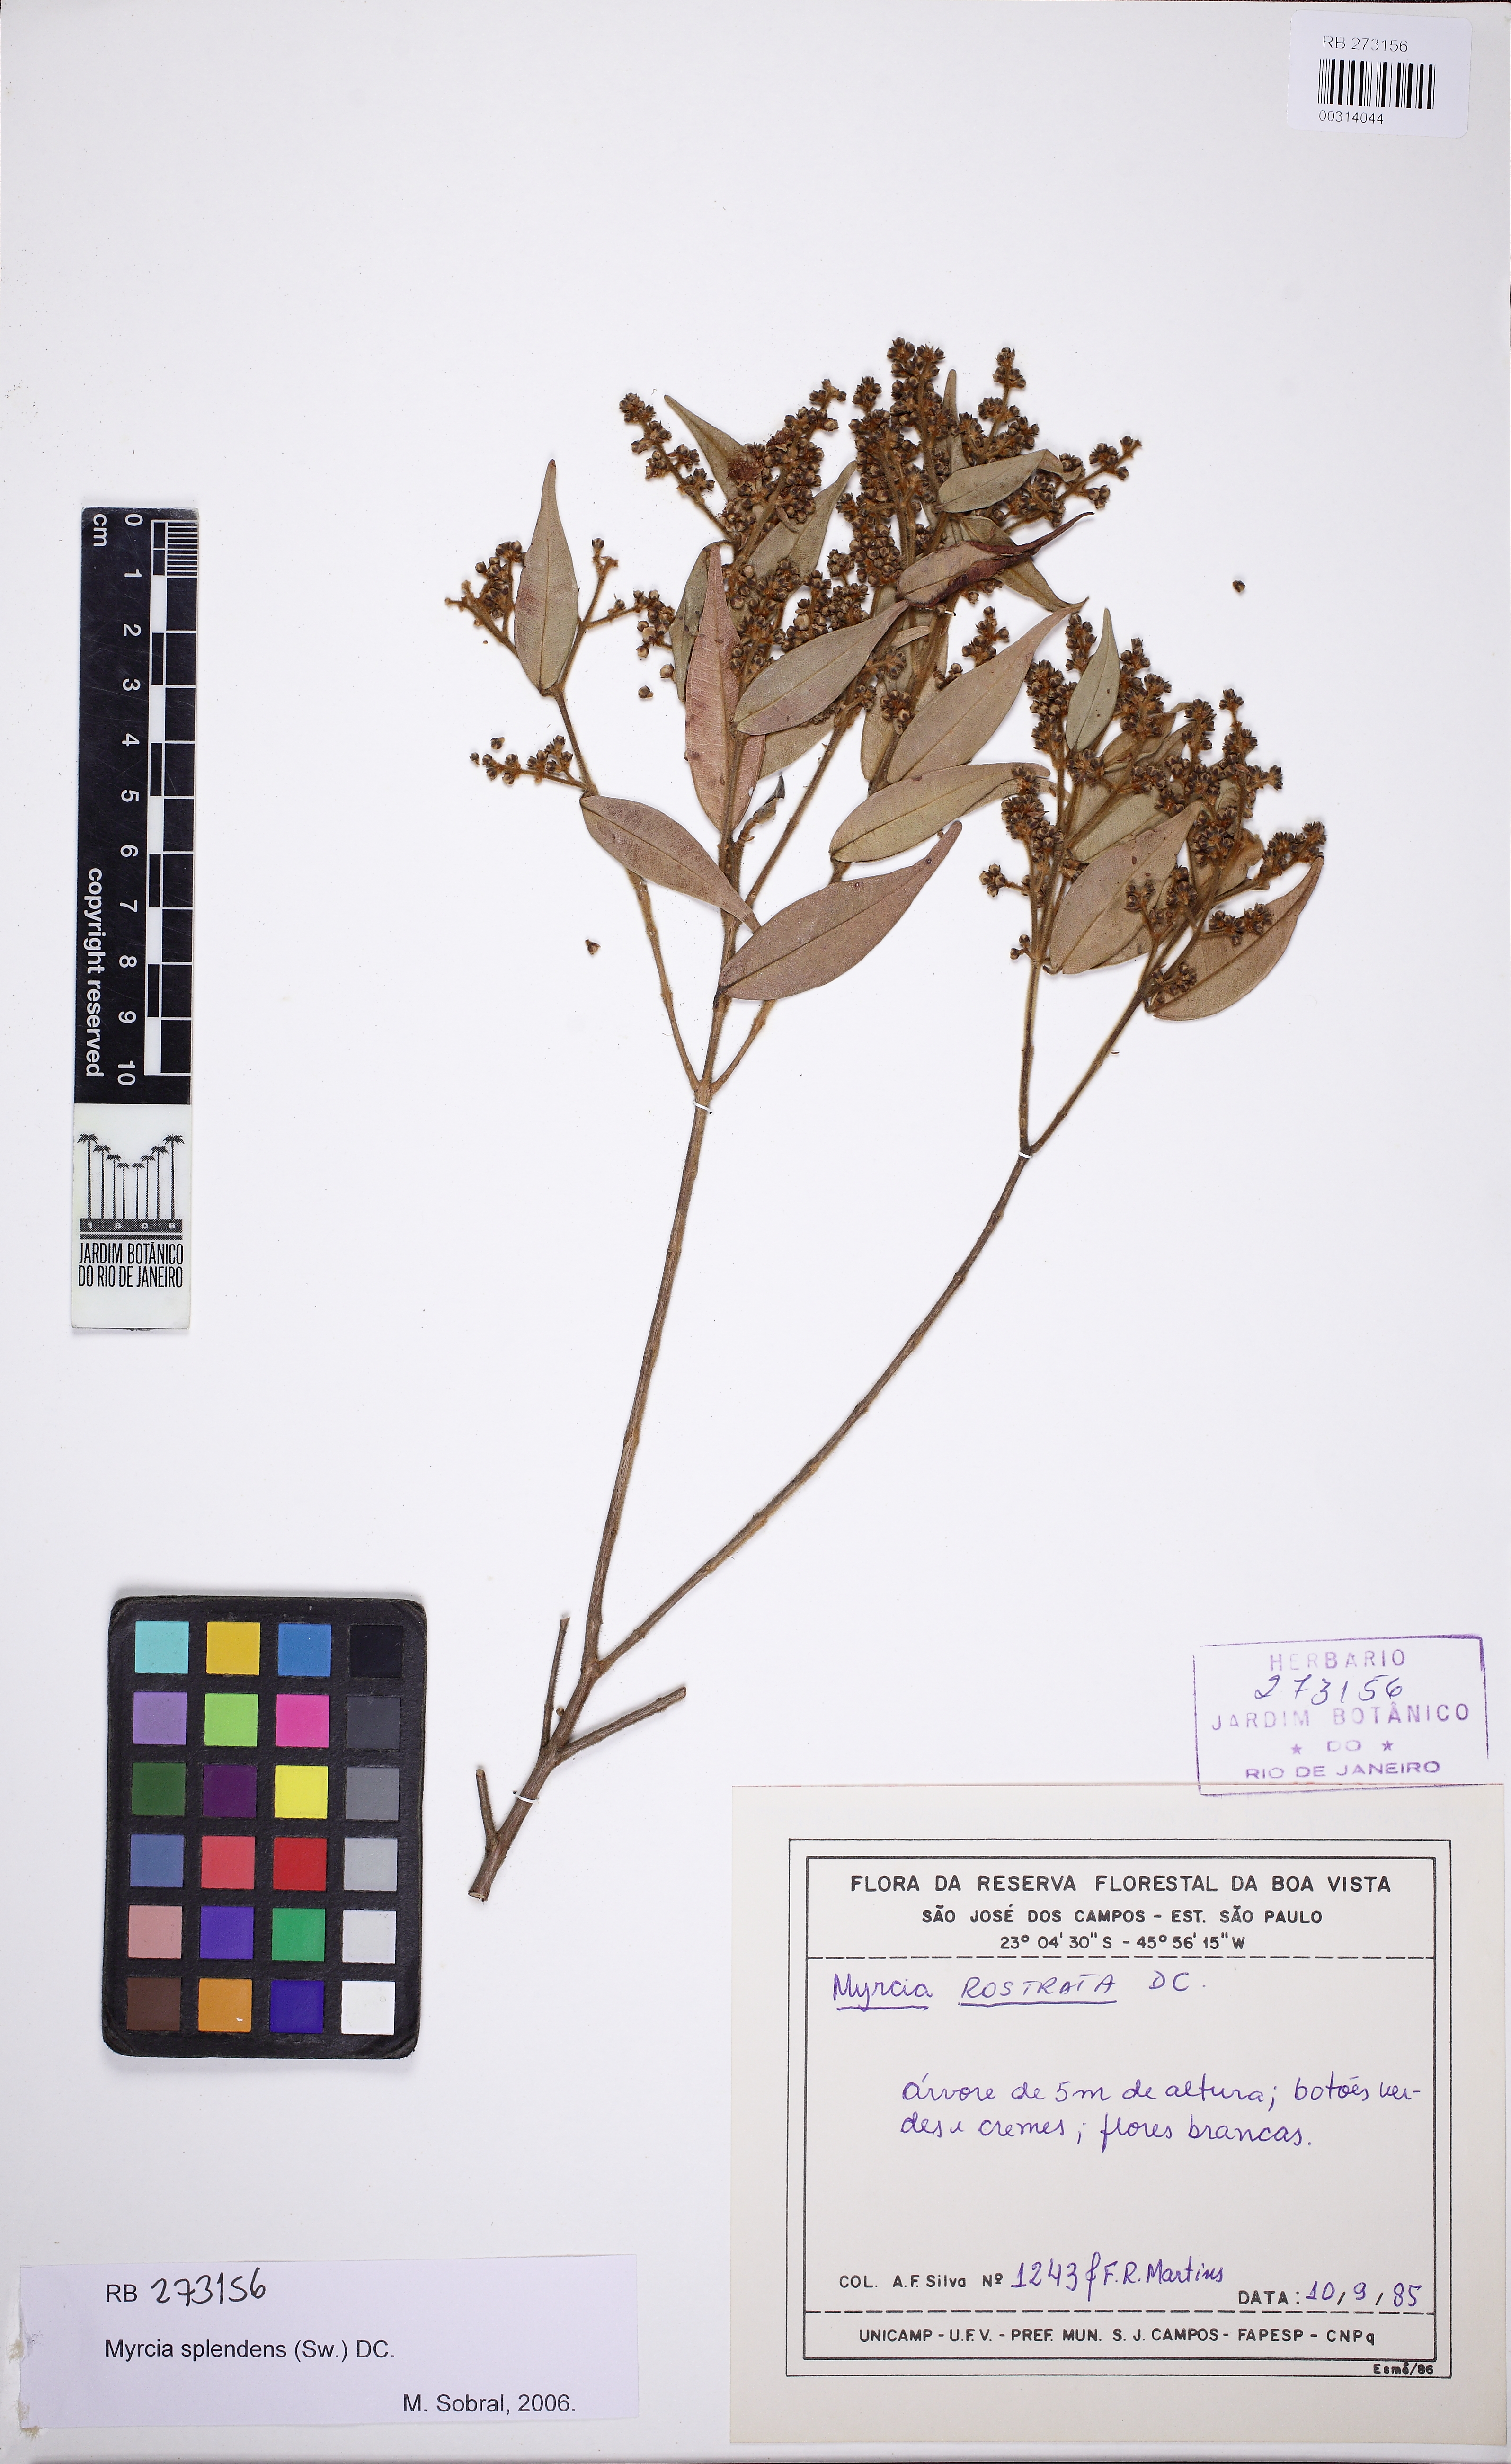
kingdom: Plantae
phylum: Tracheophyta
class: Magnoliopsida
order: Myrtales
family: Myrtaceae
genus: Myrcia
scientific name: Myrcia splendens
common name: Surinam cherry
